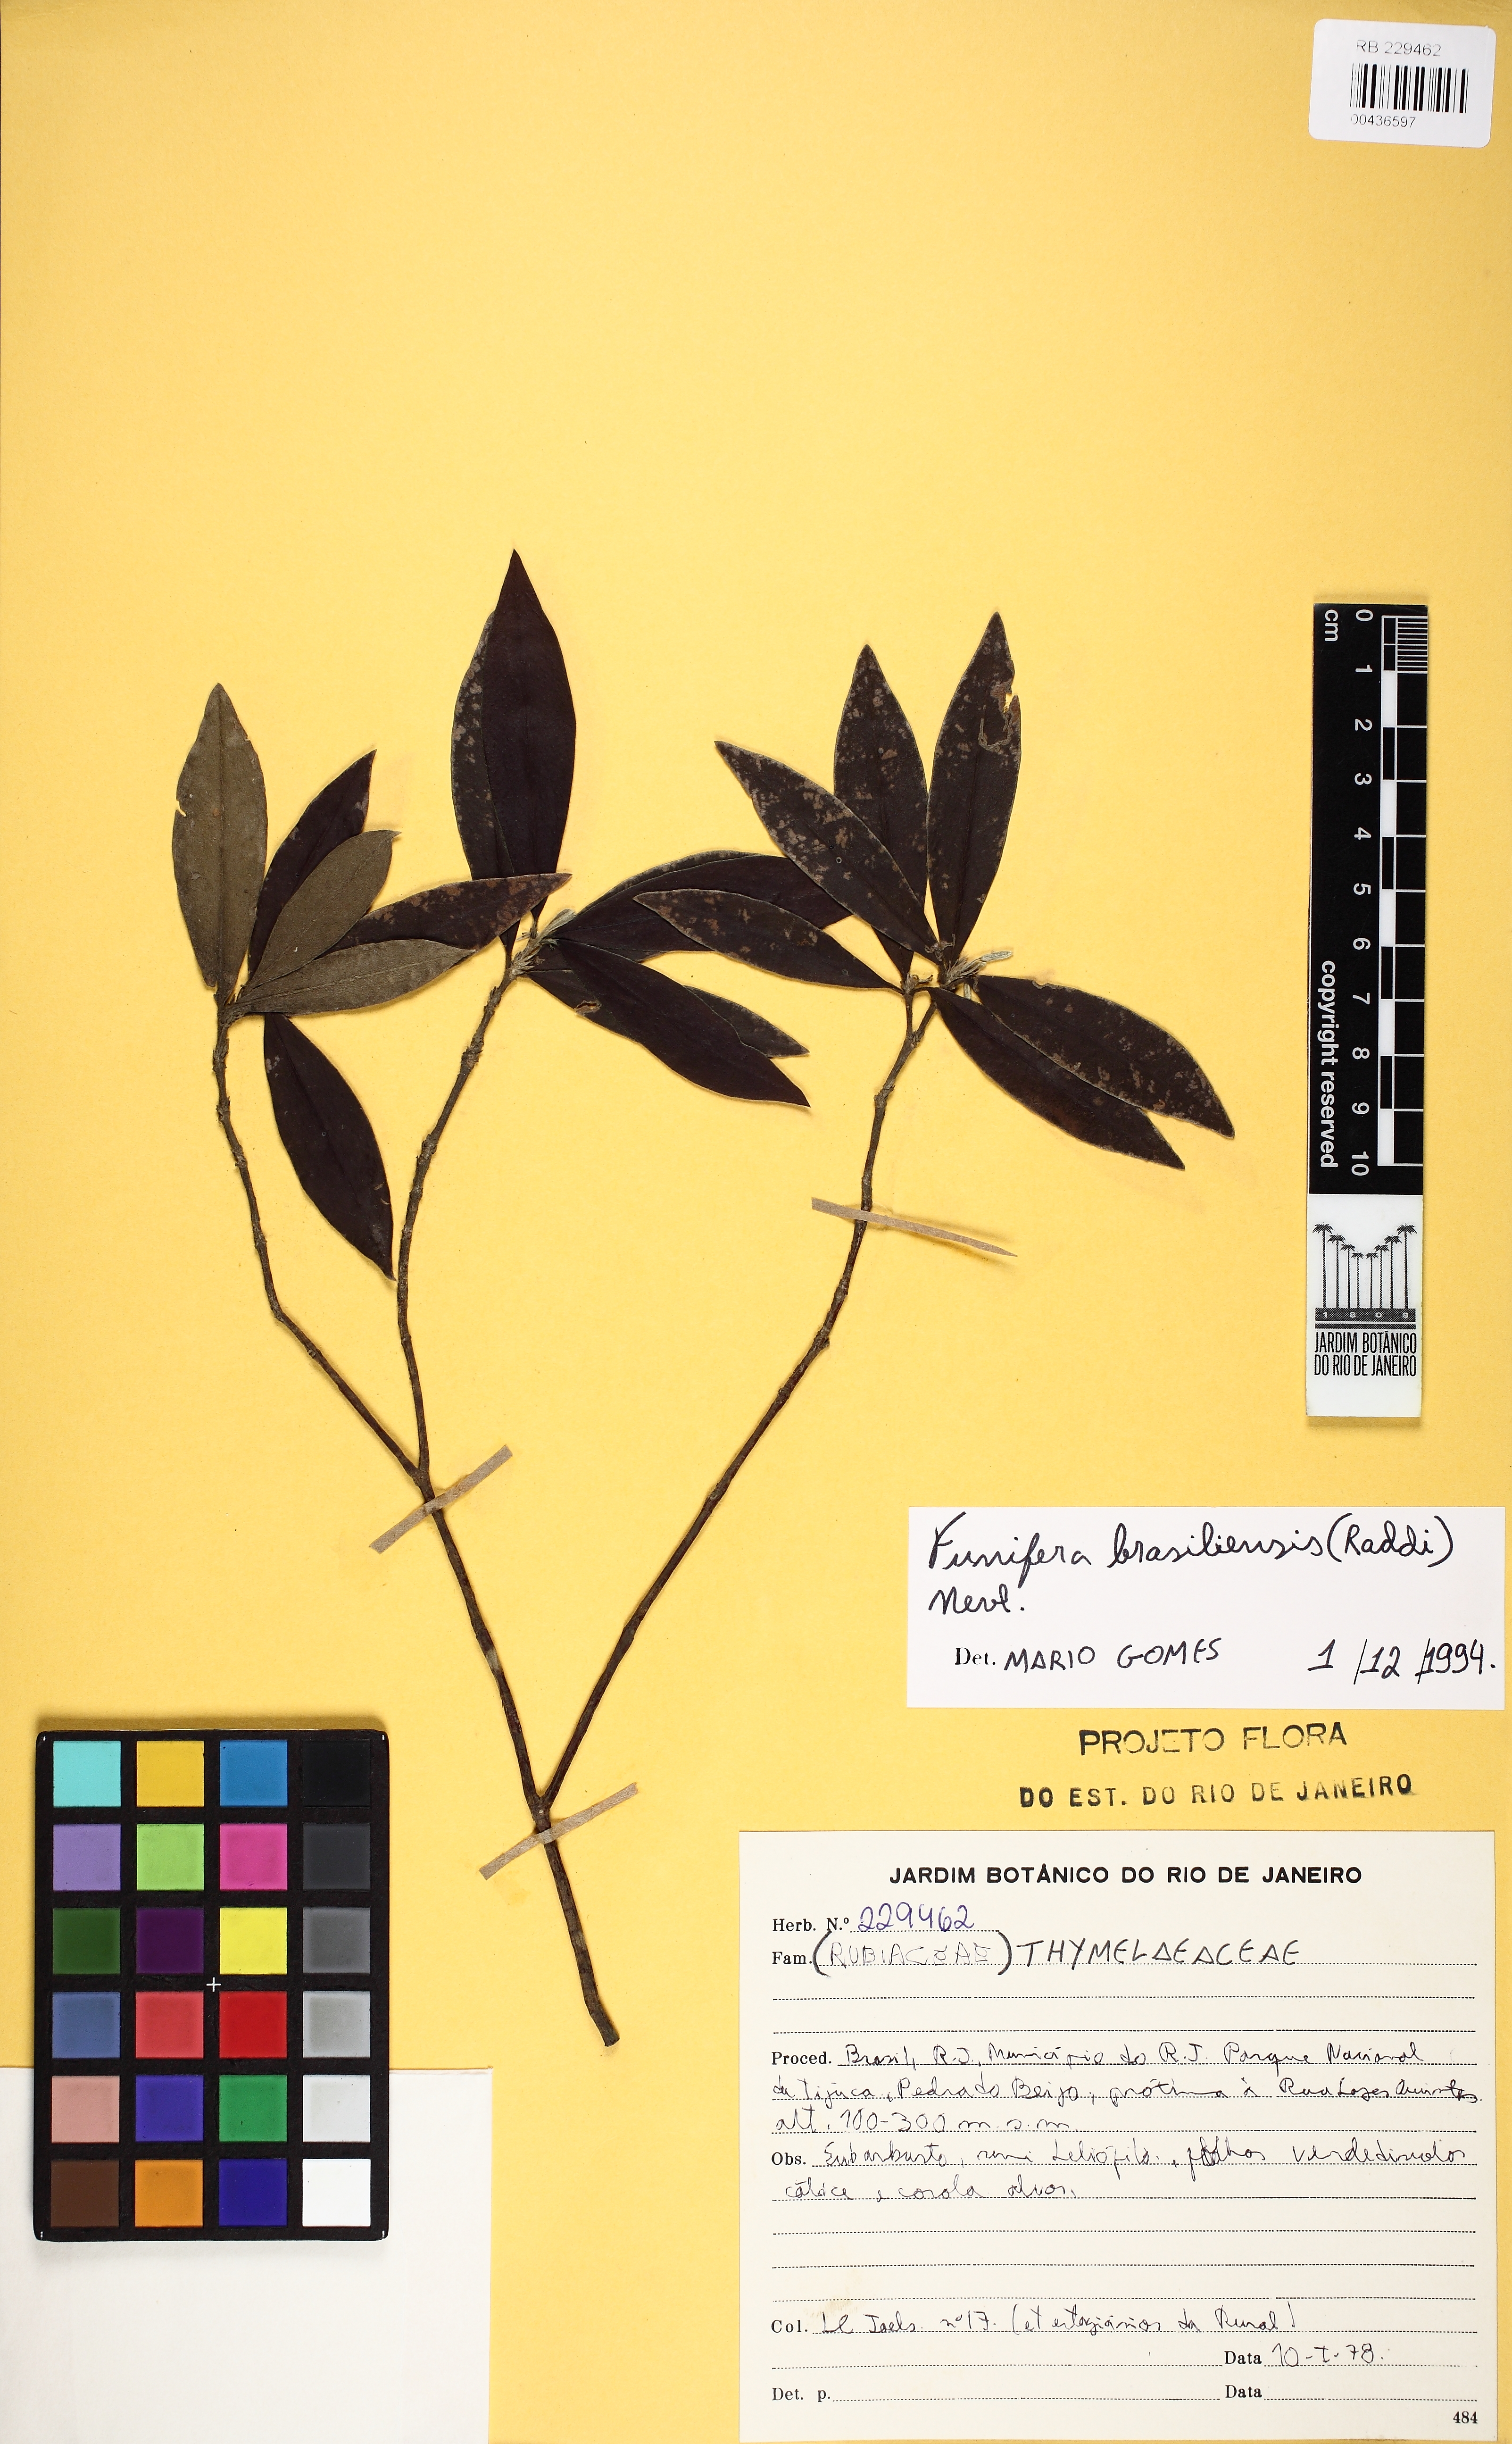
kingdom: Plantae
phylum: Tracheophyta
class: Magnoliopsida
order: Malvales
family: Thymelaeaceae
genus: Funifera
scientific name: Funifera brasiliensis
